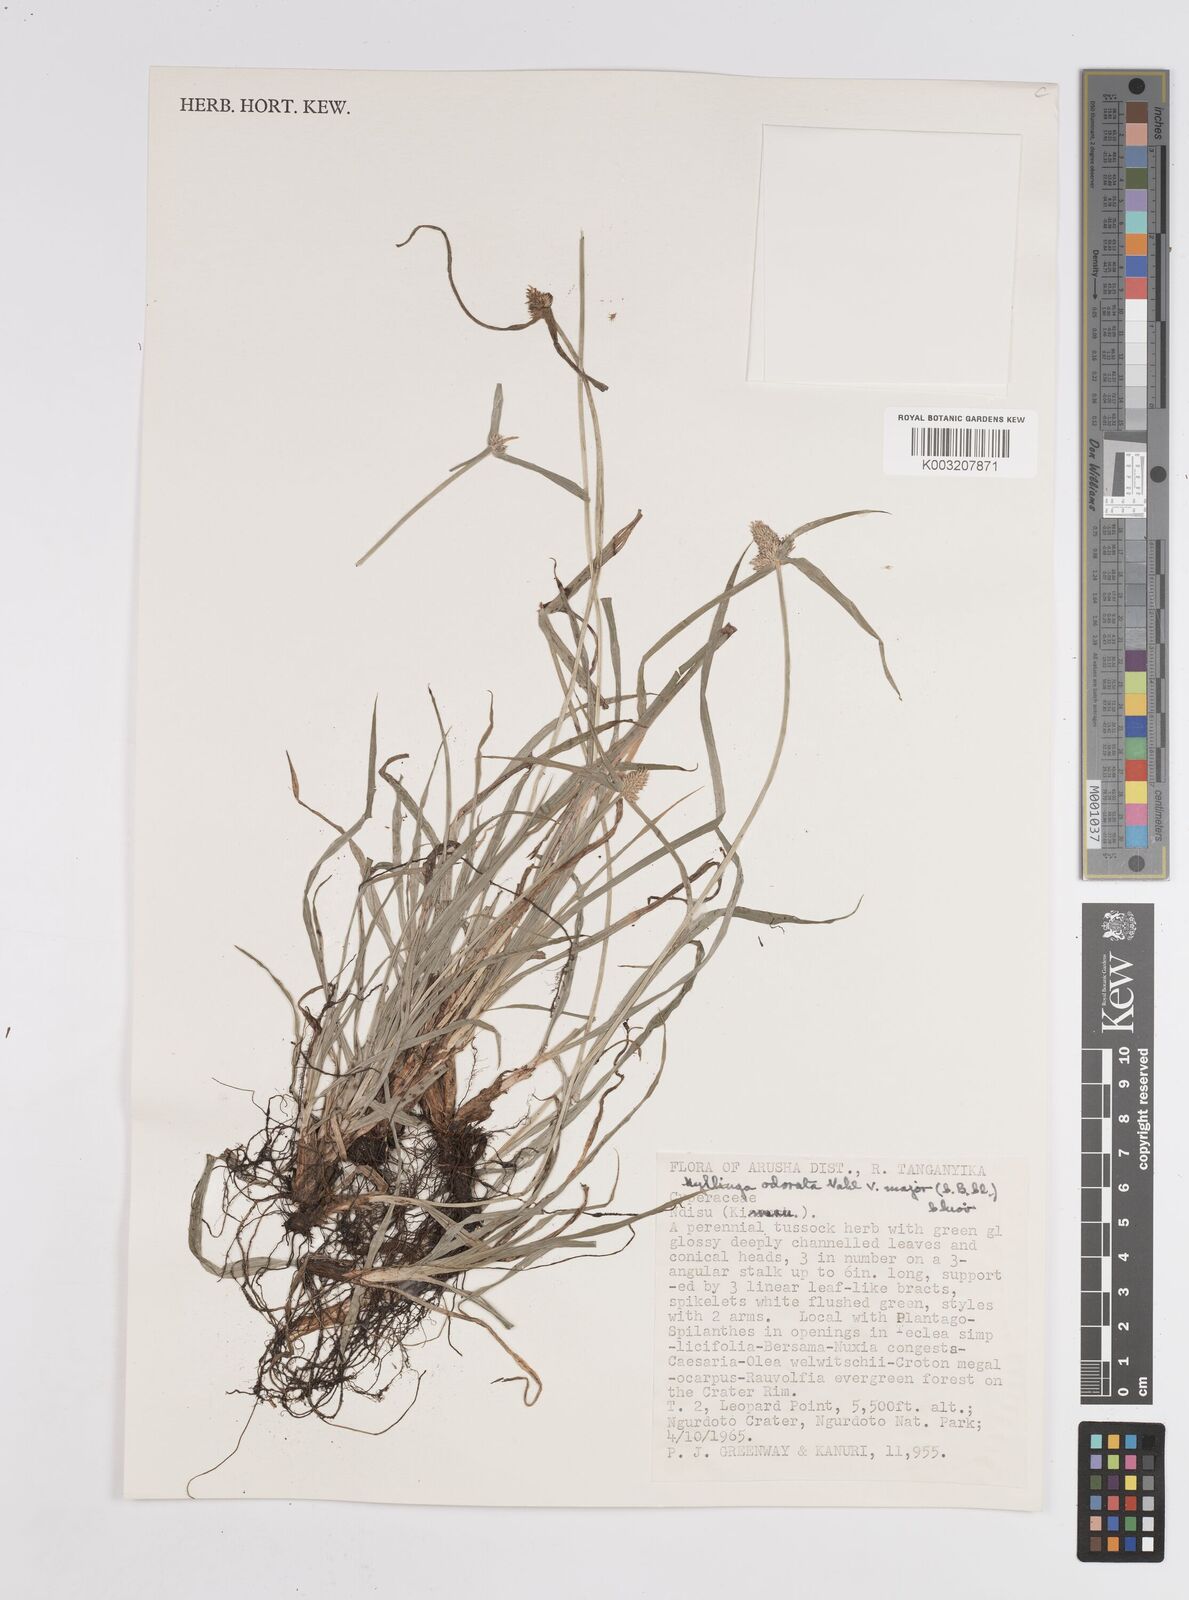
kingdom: Plantae
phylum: Tracheophyta
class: Liliopsida
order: Poales
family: Cyperaceae
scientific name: Cyperaceae
